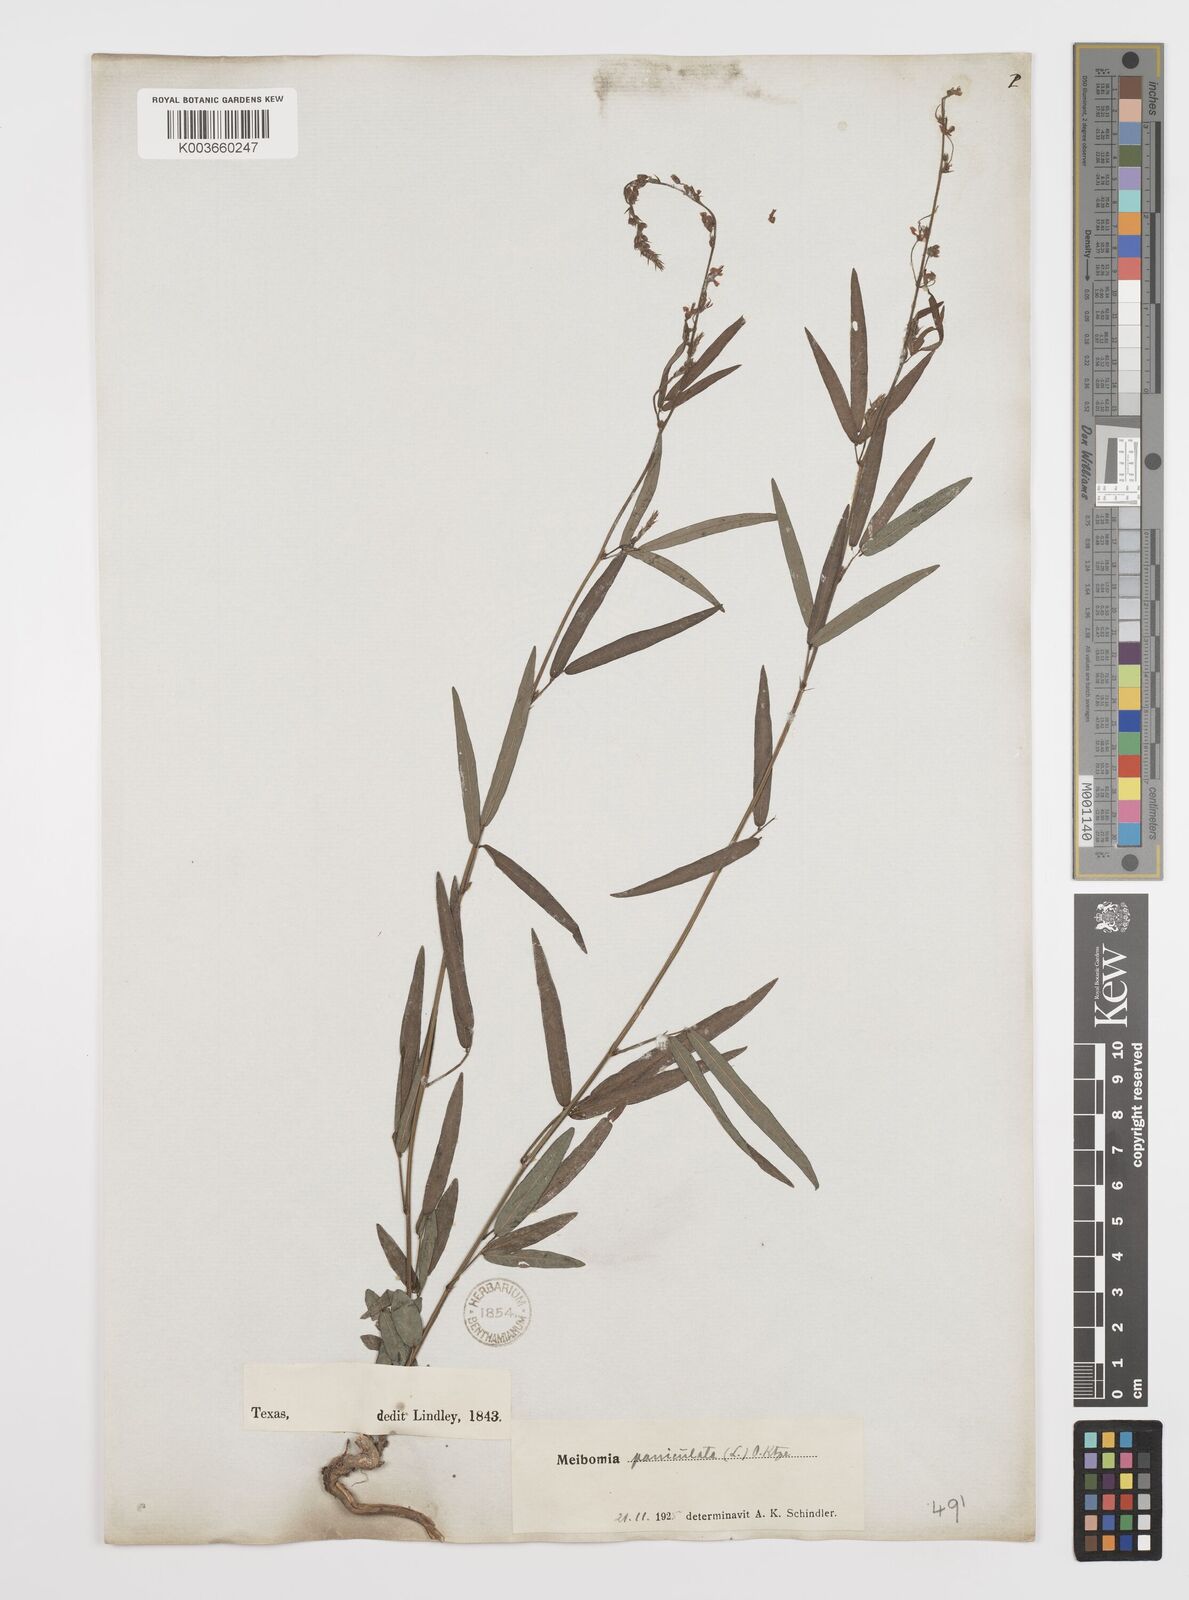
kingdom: Plantae
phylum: Tracheophyta
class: Magnoliopsida
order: Fabales
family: Fabaceae
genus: Desmodium
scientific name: Desmodium paniculatum
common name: Panicled tick-clover
